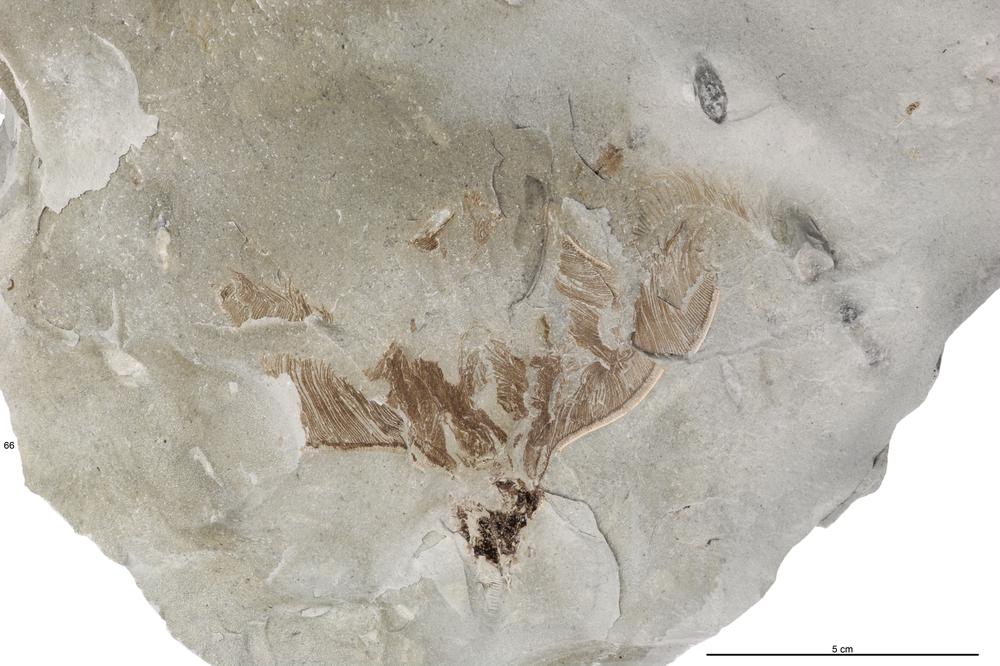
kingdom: Animalia
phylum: Echinodermata
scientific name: Echinodermata
